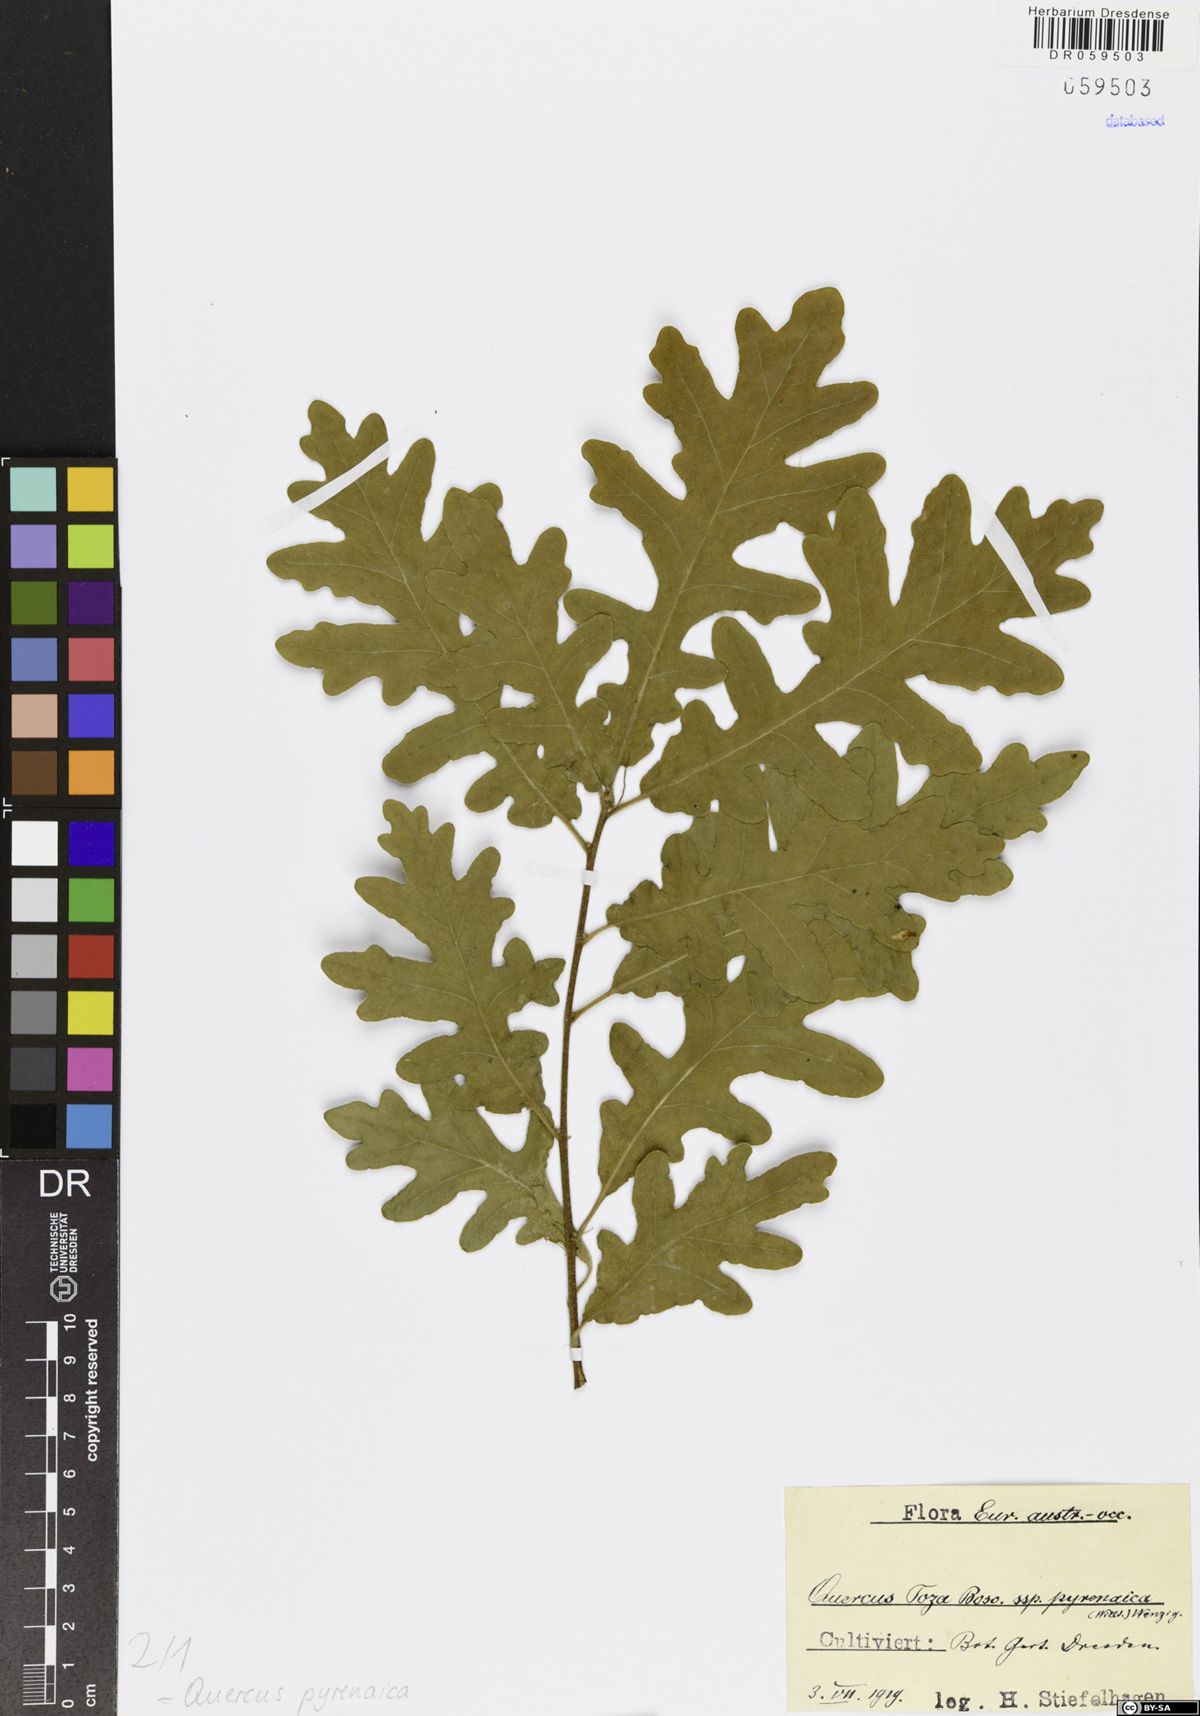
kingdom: Plantae
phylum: Tracheophyta
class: Magnoliopsida
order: Fagales
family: Fagaceae
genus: Quercus
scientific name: Quercus pyrenaica
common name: Pyrenean oak
